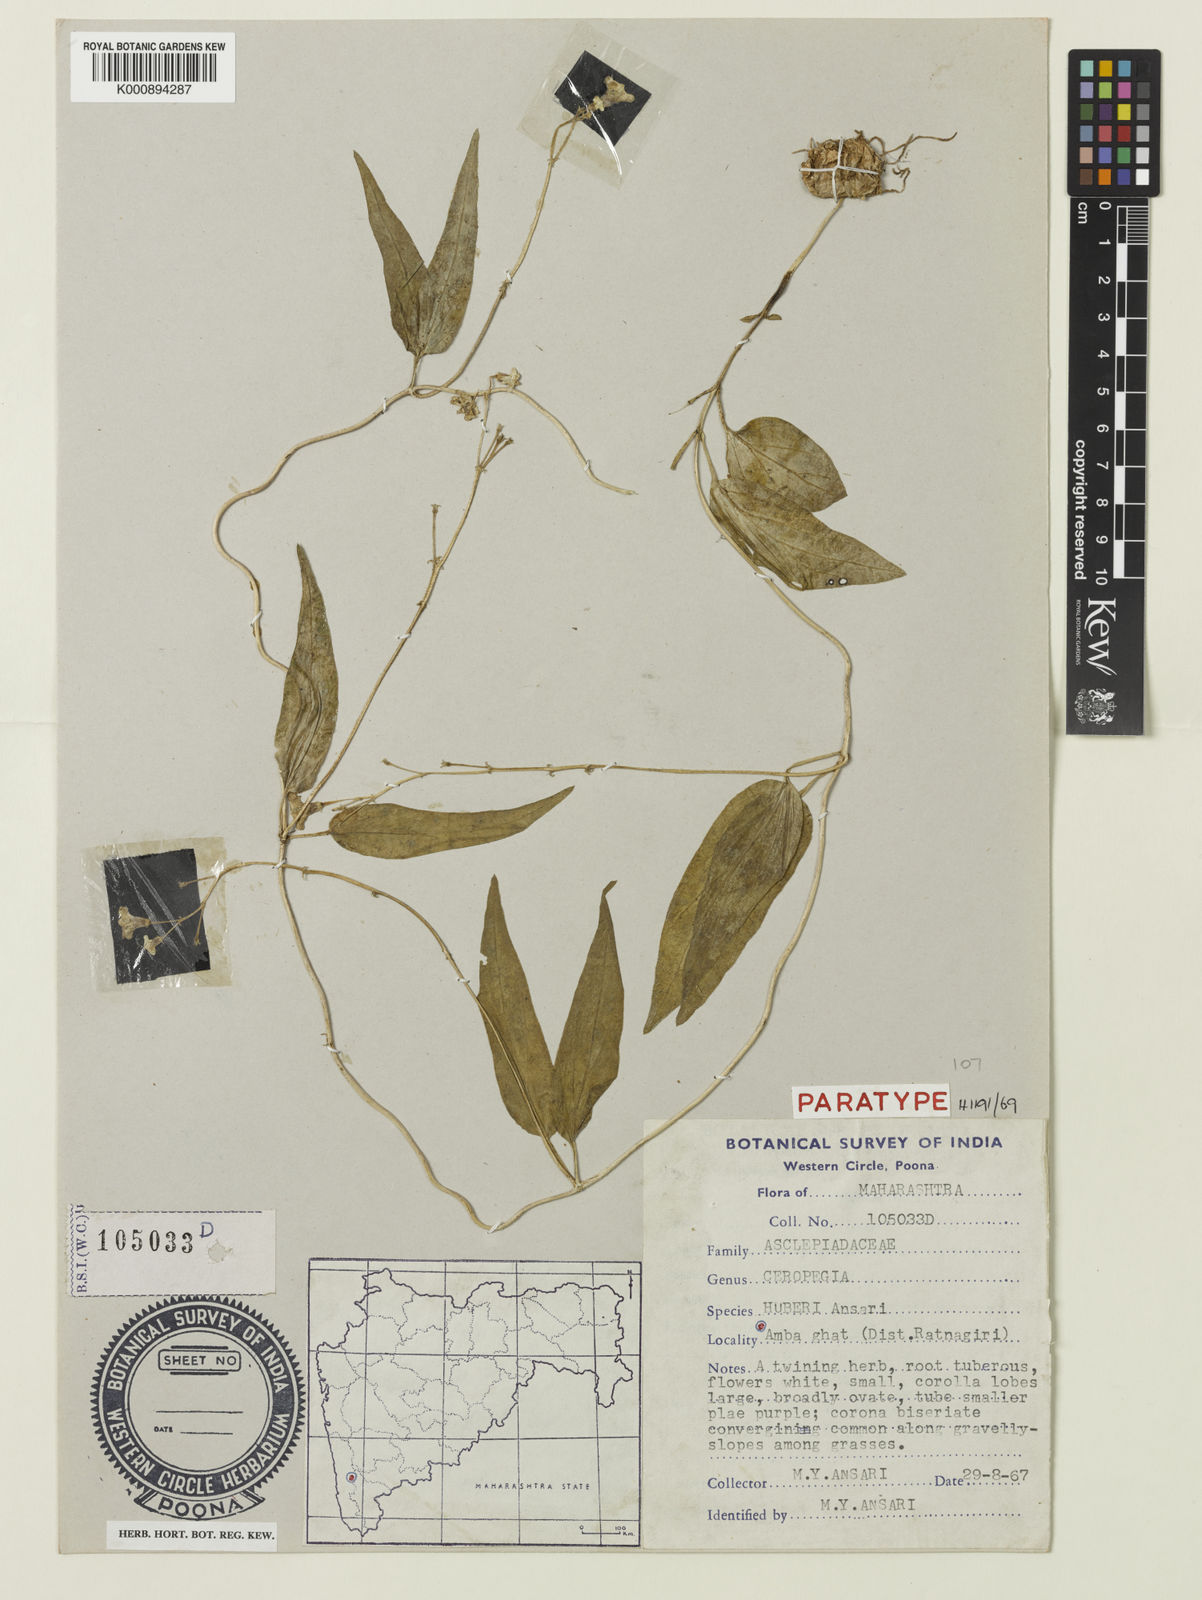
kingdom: Plantae
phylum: Tracheophyta
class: Magnoliopsida
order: Gentianales
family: Apocynaceae
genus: Ceropegia
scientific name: Ceropegia santapaui
